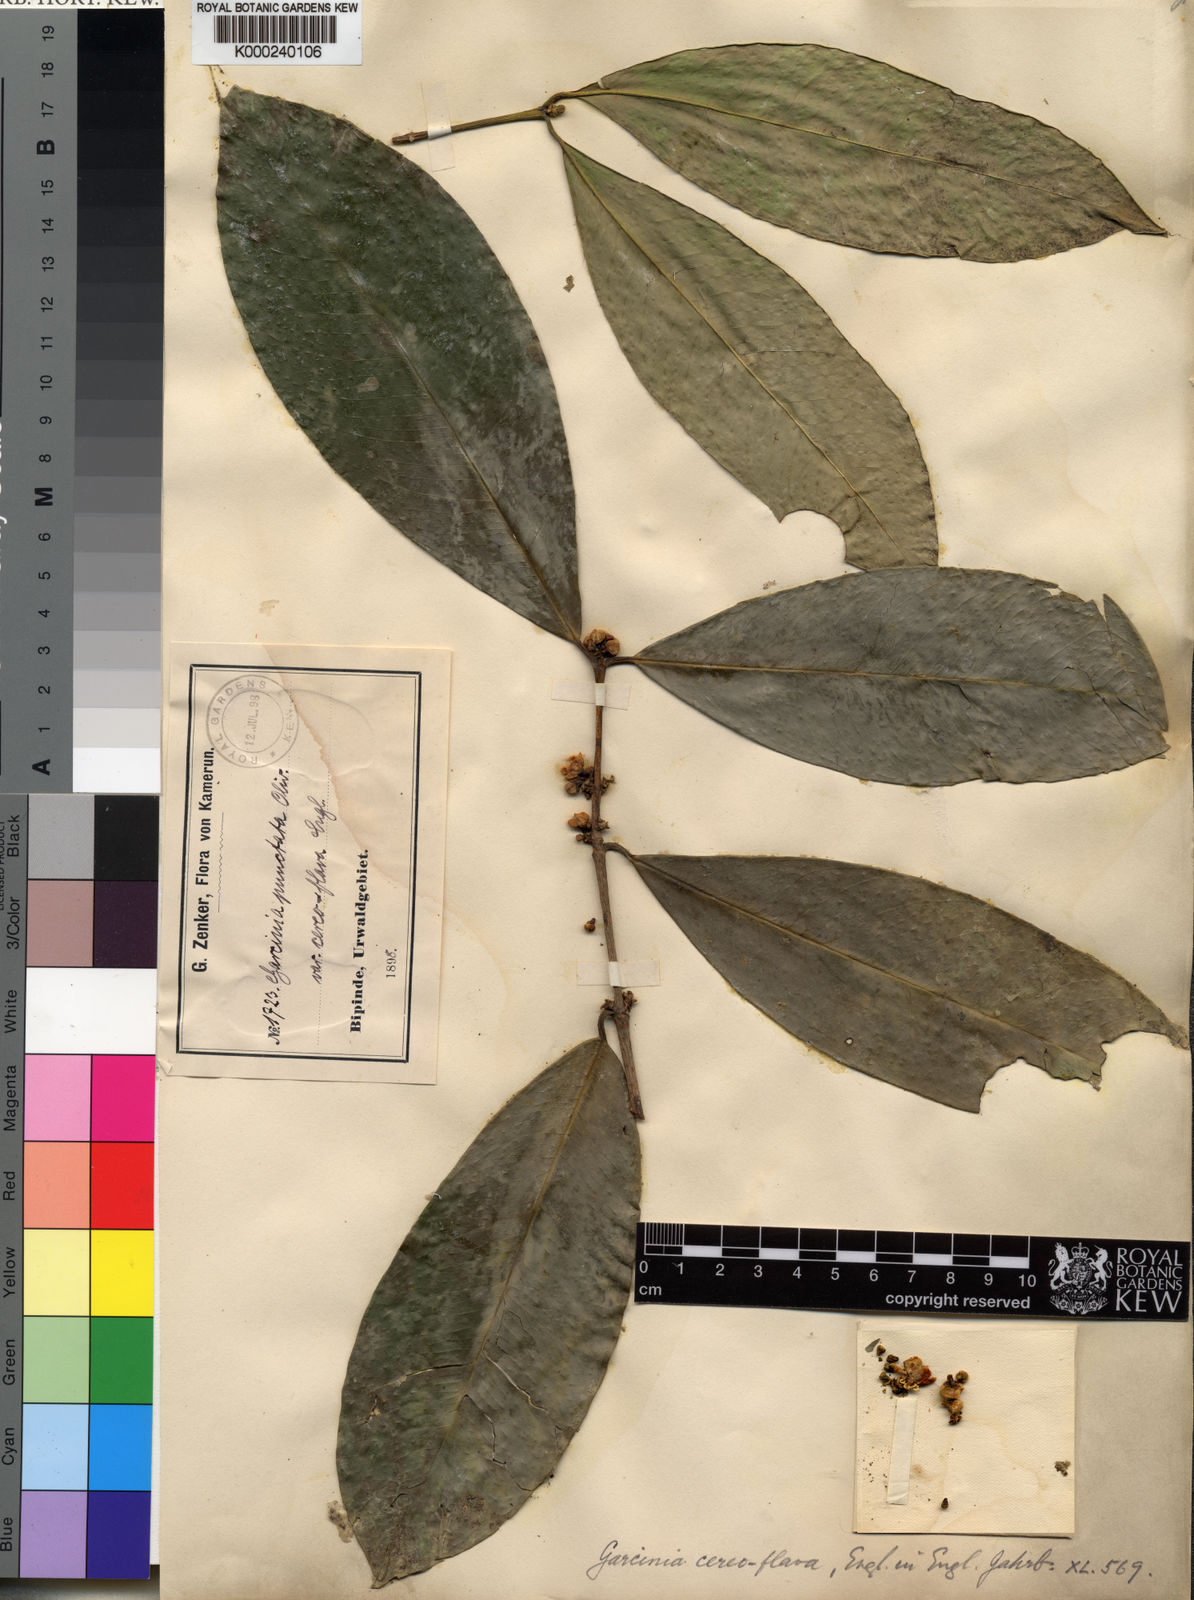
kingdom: Plantae
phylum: Tracheophyta
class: Magnoliopsida
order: Malpighiales
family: Clusiaceae
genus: Garcinia
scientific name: Garcinia epunctata
